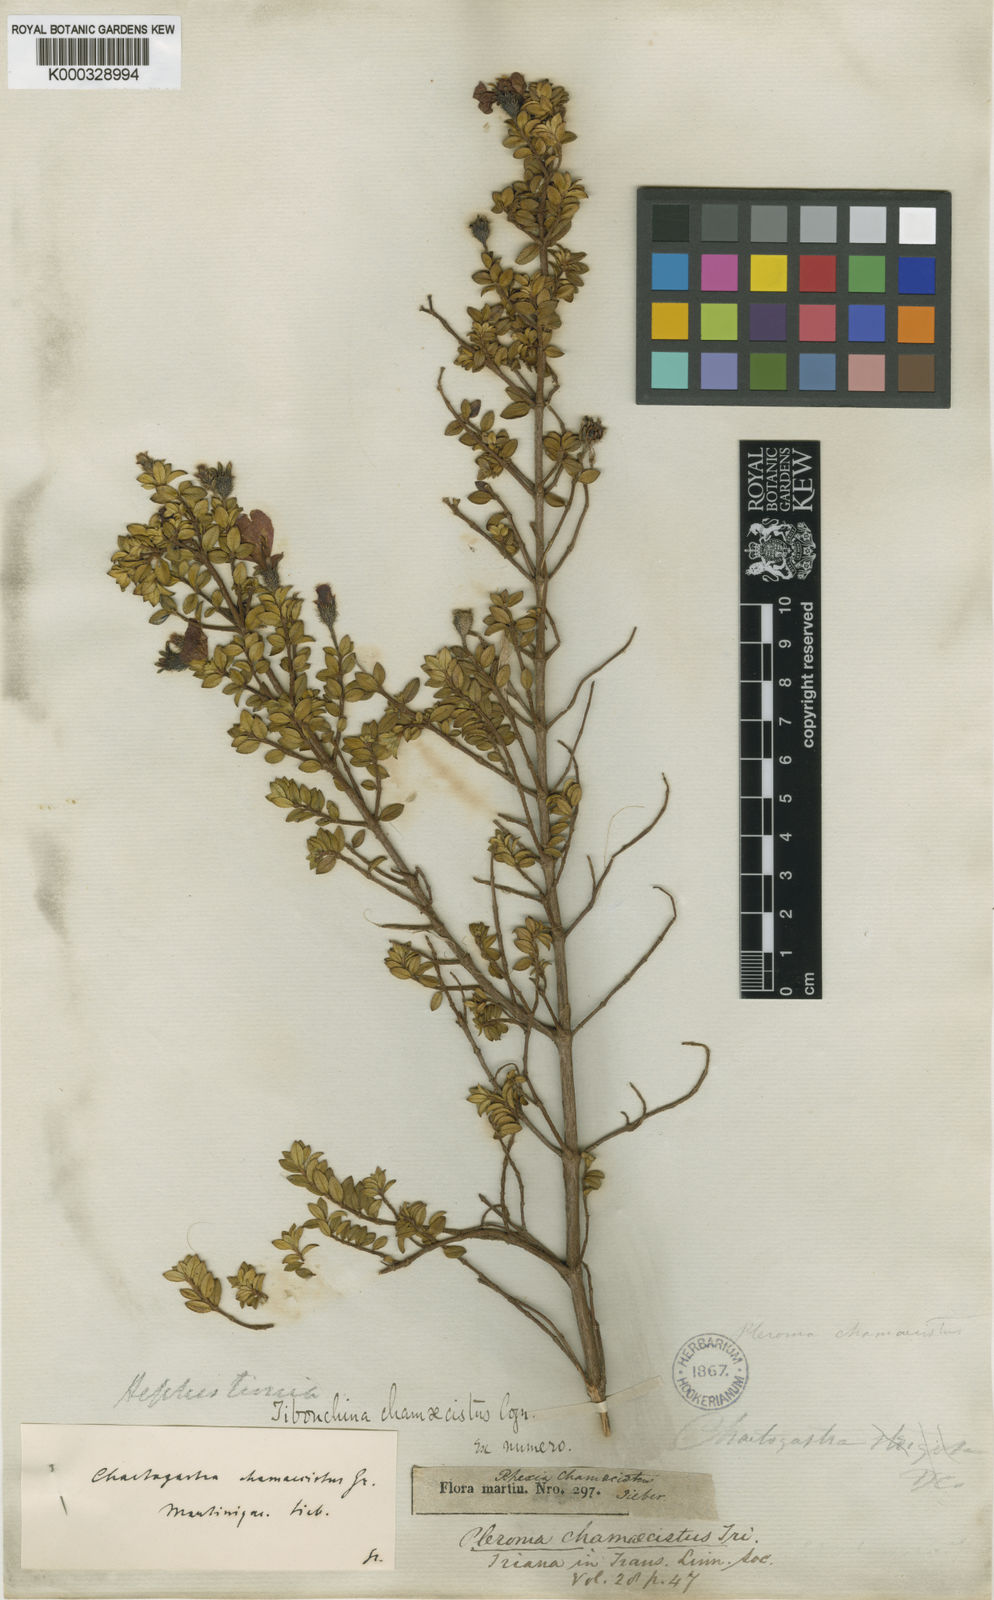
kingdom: Plantae
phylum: Tracheophyta
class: Magnoliopsida
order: Myrtales
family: Melastomataceae
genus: Chaetogastra
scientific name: Chaetogastra chamaecistus
